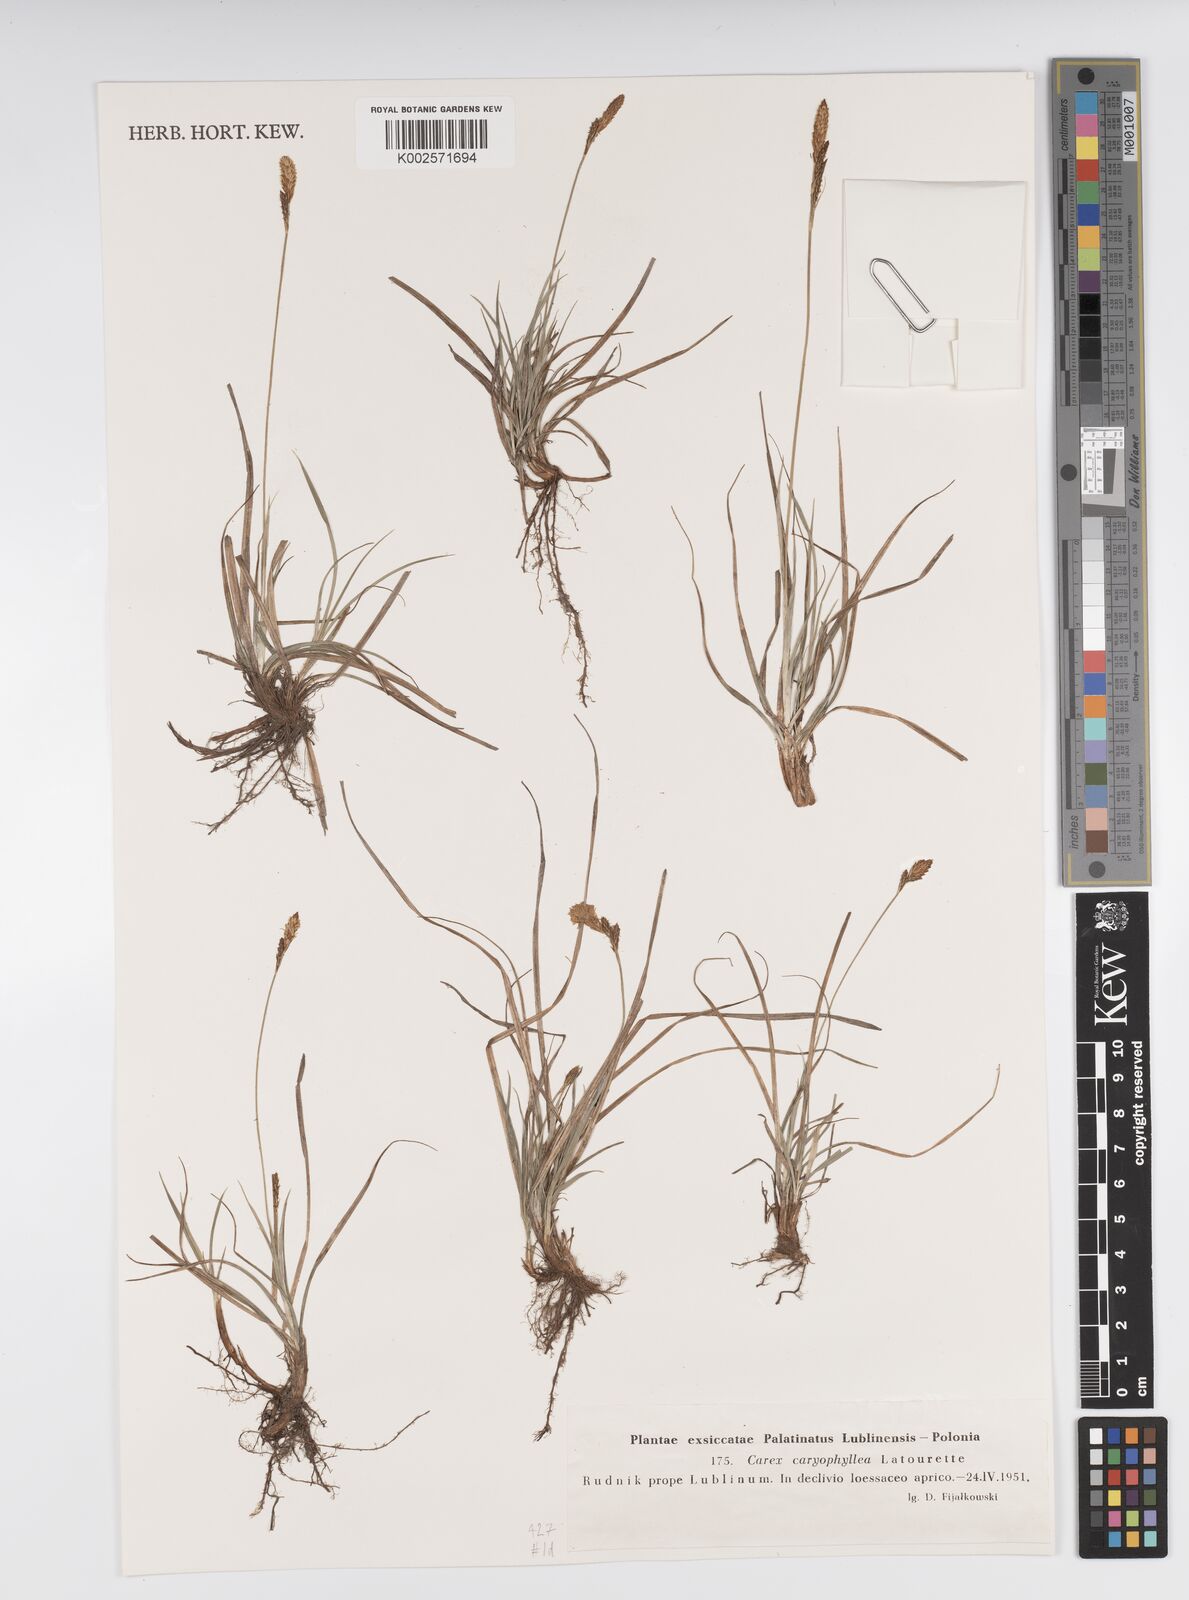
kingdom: Plantae
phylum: Tracheophyta
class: Liliopsida
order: Poales
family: Cyperaceae
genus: Carex
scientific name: Carex caryophyllea
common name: Spring sedge
